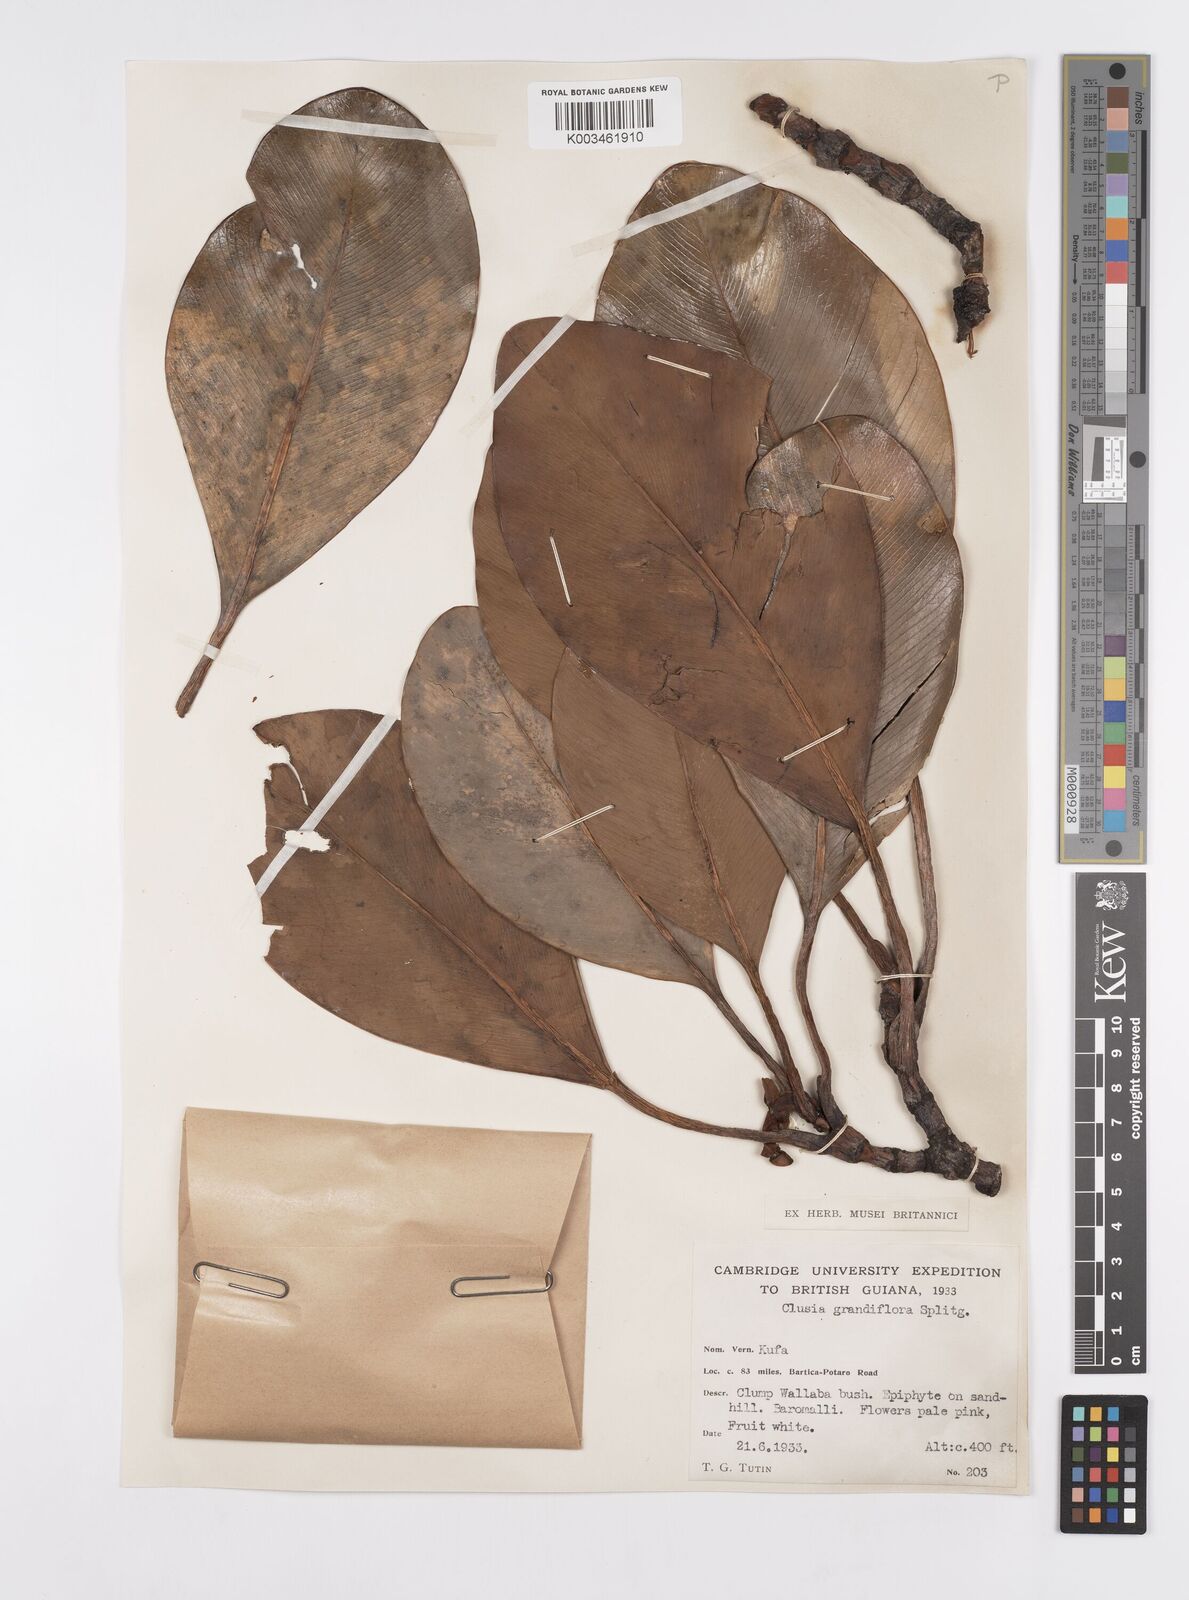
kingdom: Plantae
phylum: Tracheophyta
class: Magnoliopsida
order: Malpighiales
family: Clusiaceae
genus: Clusia
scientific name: Clusia grandiflora
